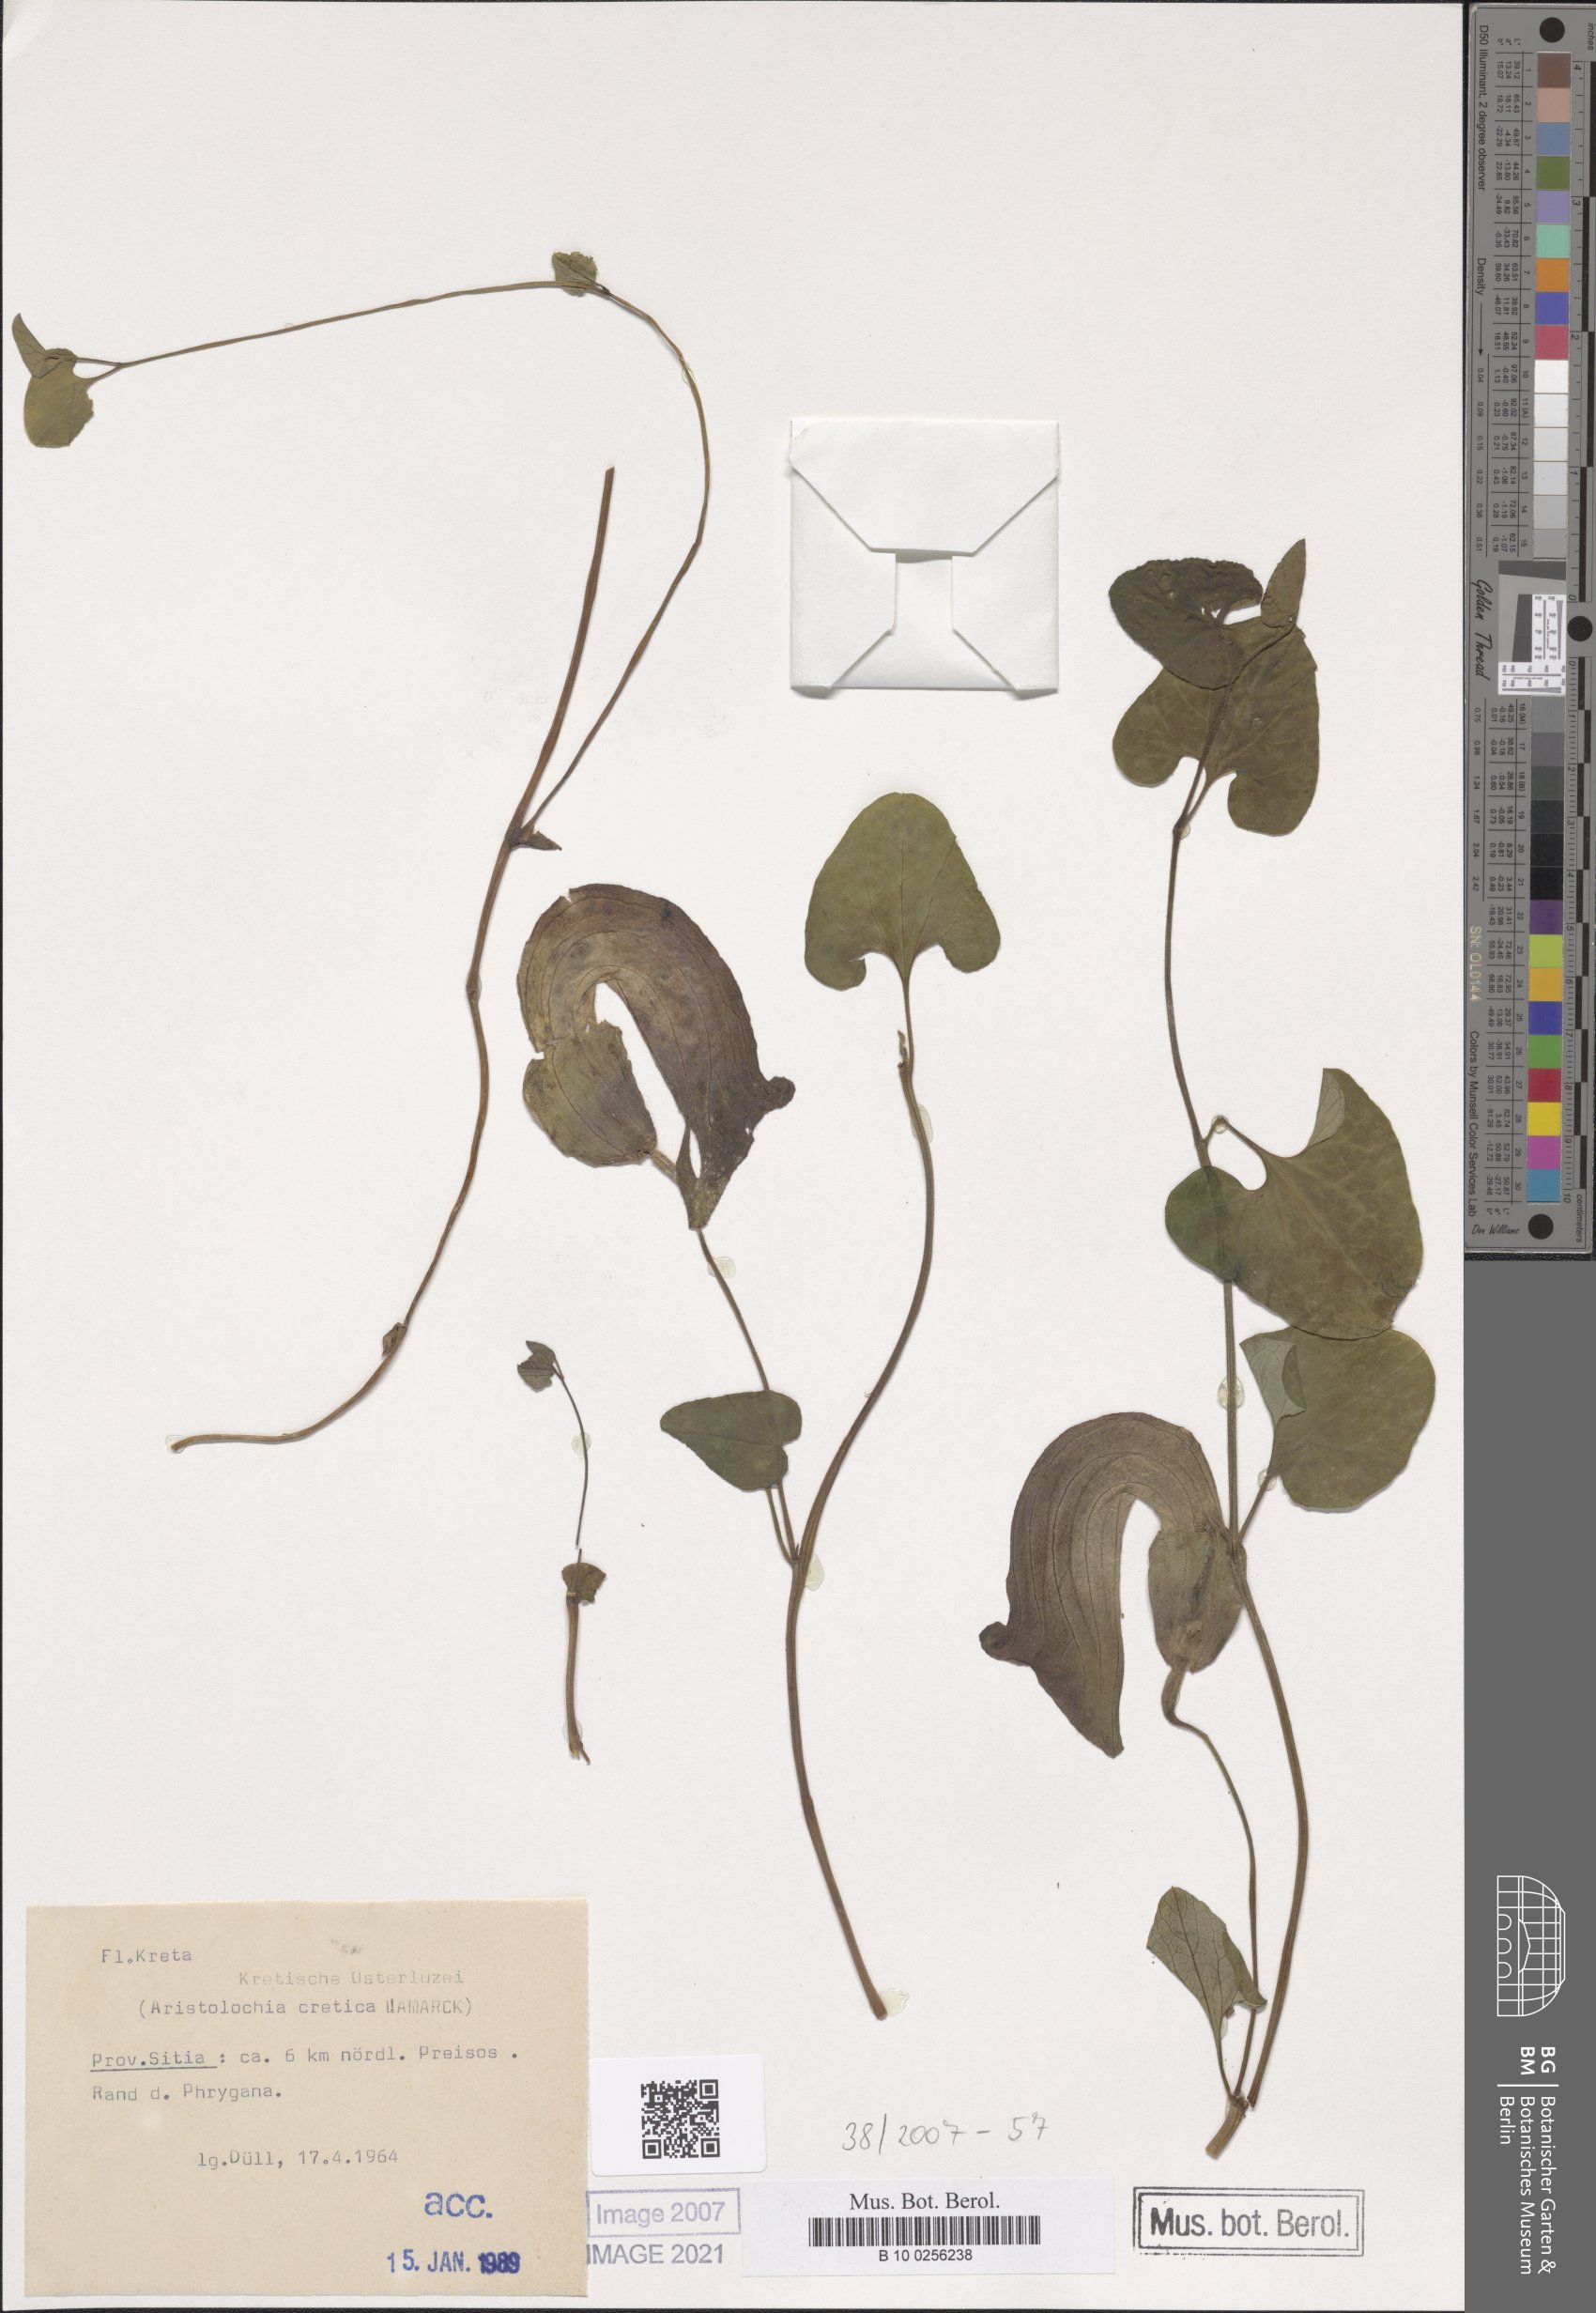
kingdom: Plantae
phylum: Tracheophyta
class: Magnoliopsida
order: Piperales
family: Aristolochiaceae
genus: Aristolochia
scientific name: Aristolochia cretica
